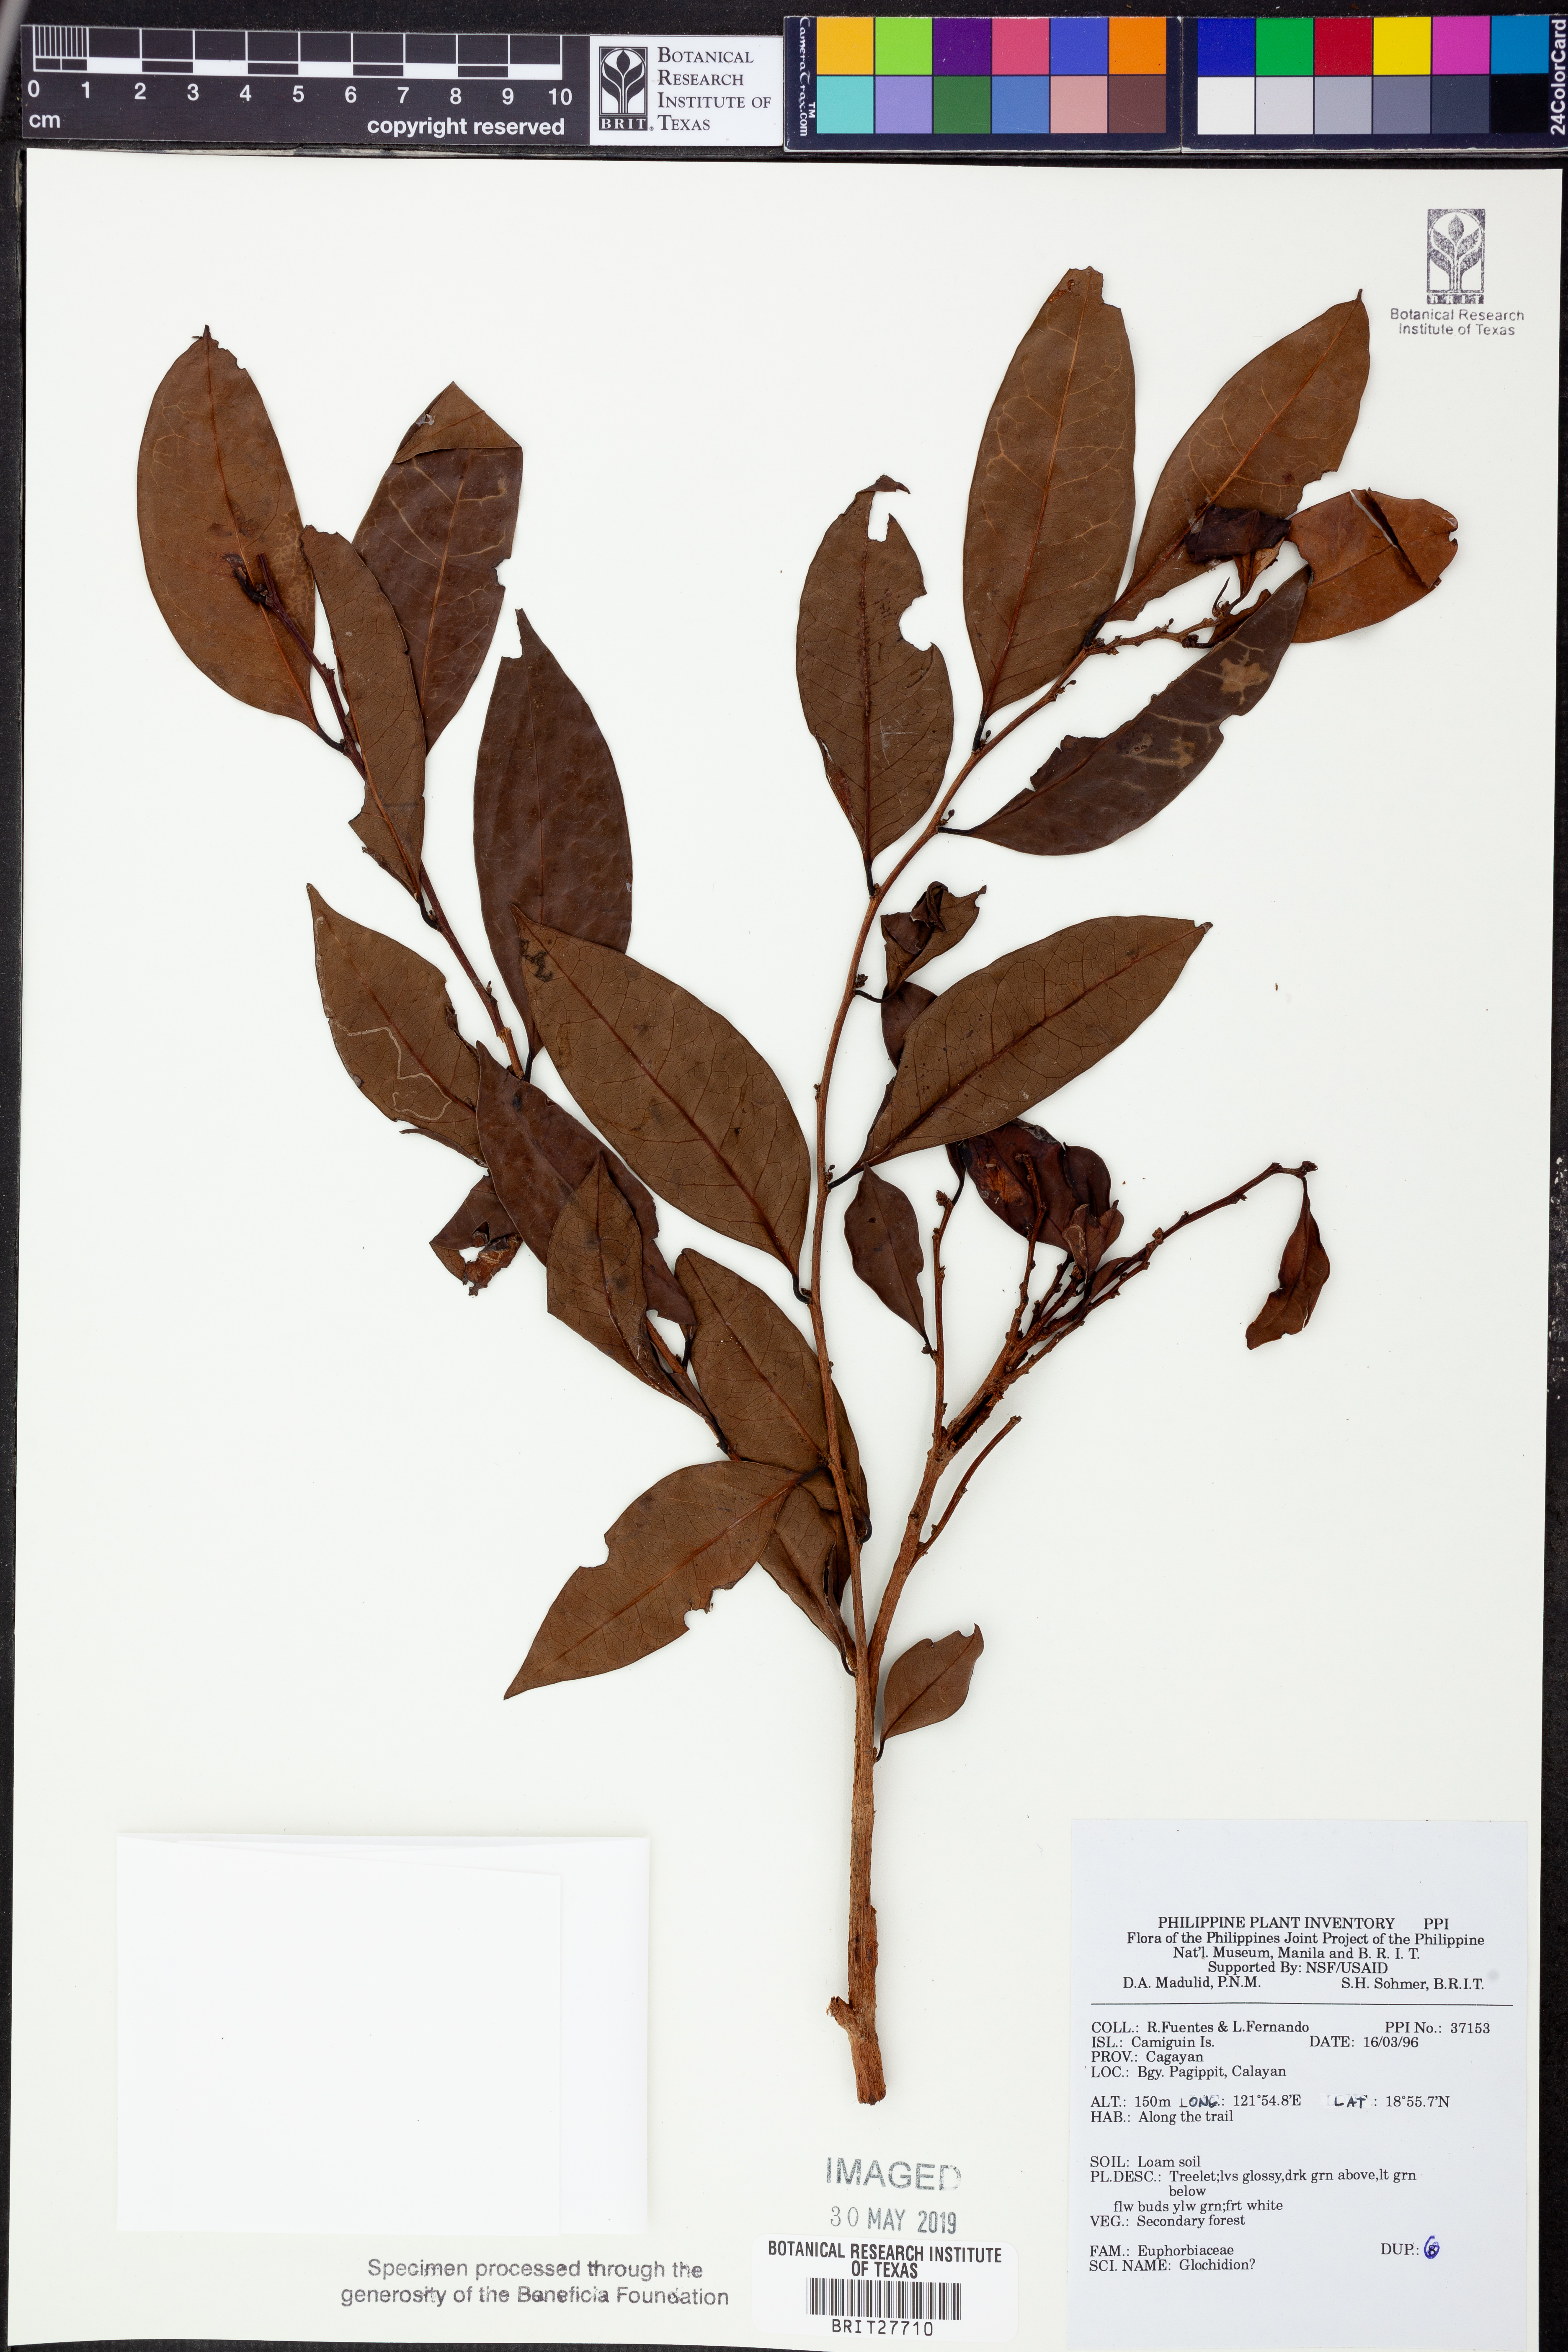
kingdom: Plantae
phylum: Tracheophyta
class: Magnoliopsida
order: Malpighiales
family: Phyllanthaceae
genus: Glochidion
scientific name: Glochidion
